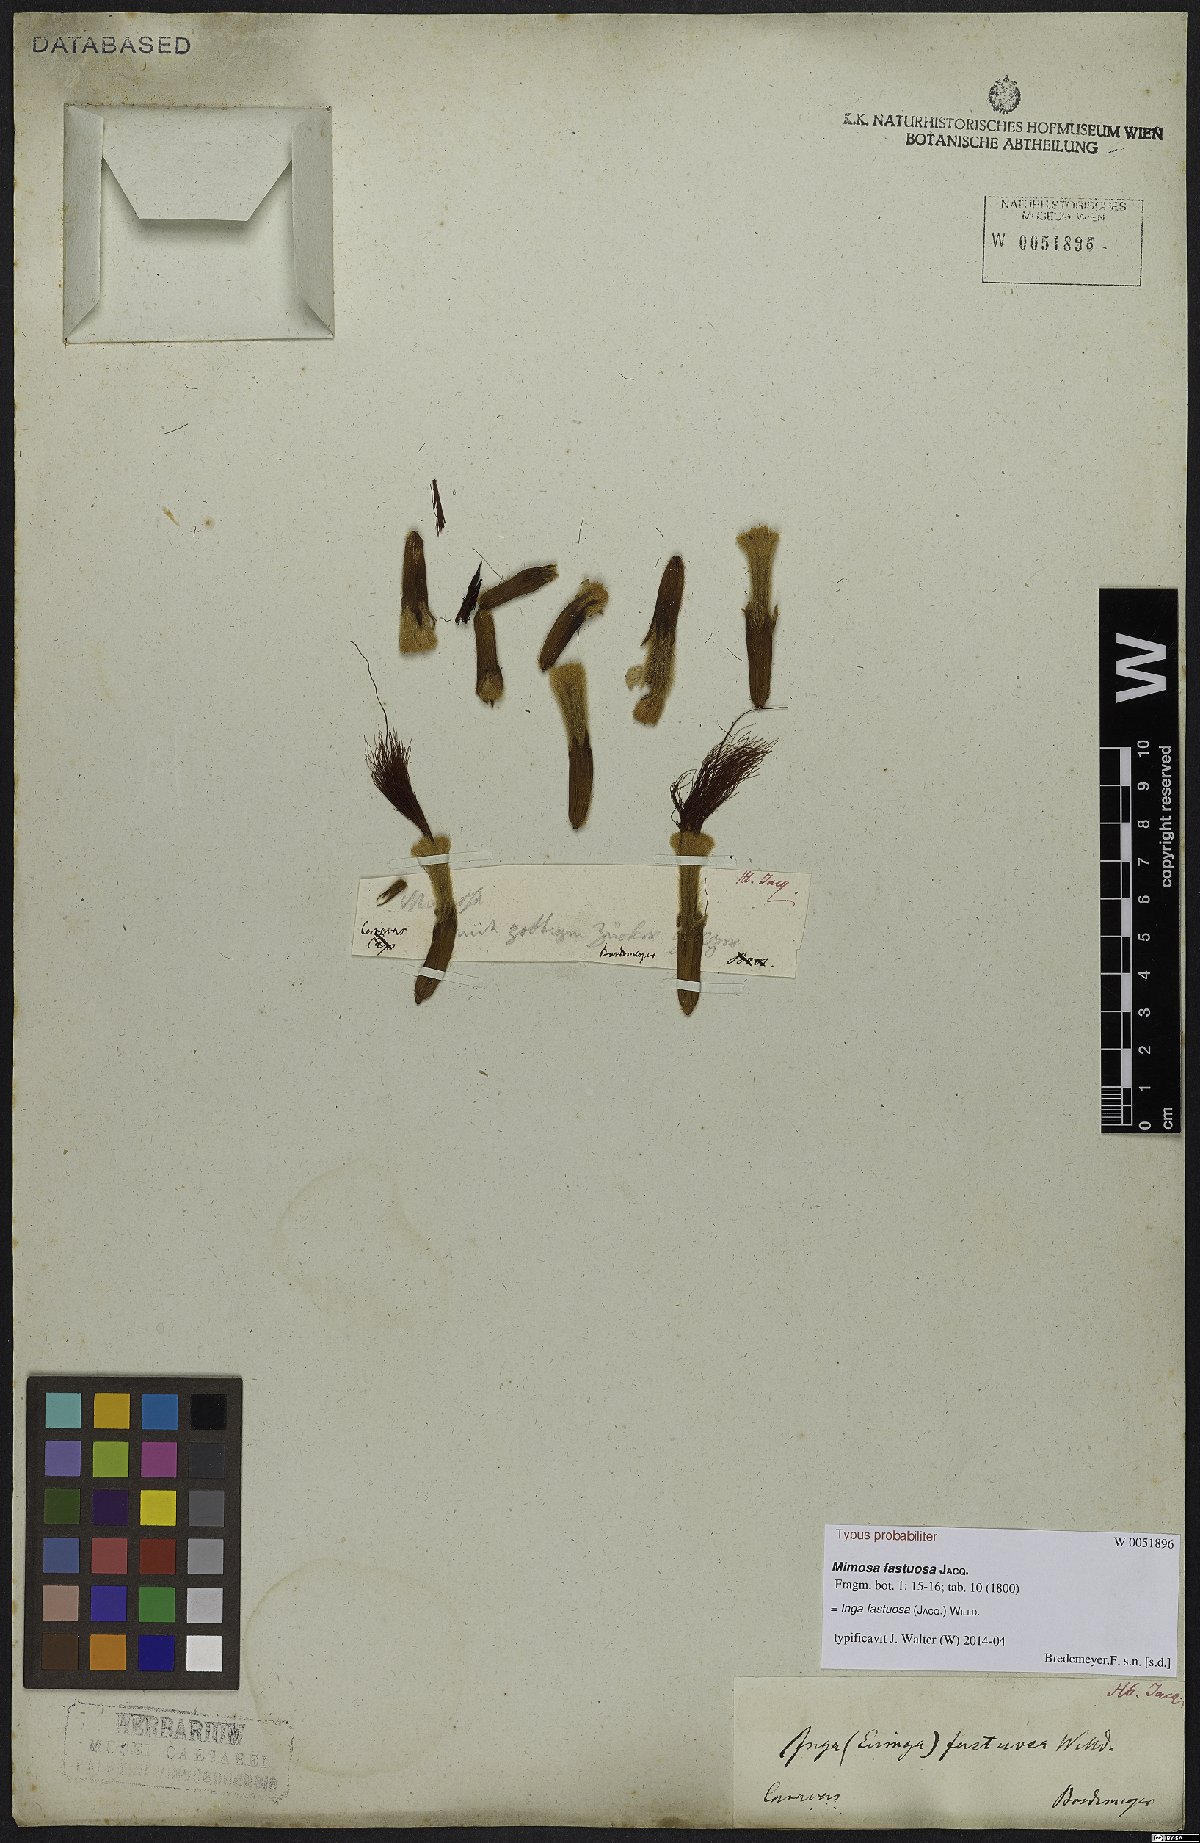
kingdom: Plantae
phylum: Tracheophyta
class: Magnoliopsida
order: Fabales
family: Fabaceae
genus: Inga
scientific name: Inga fastuosa
